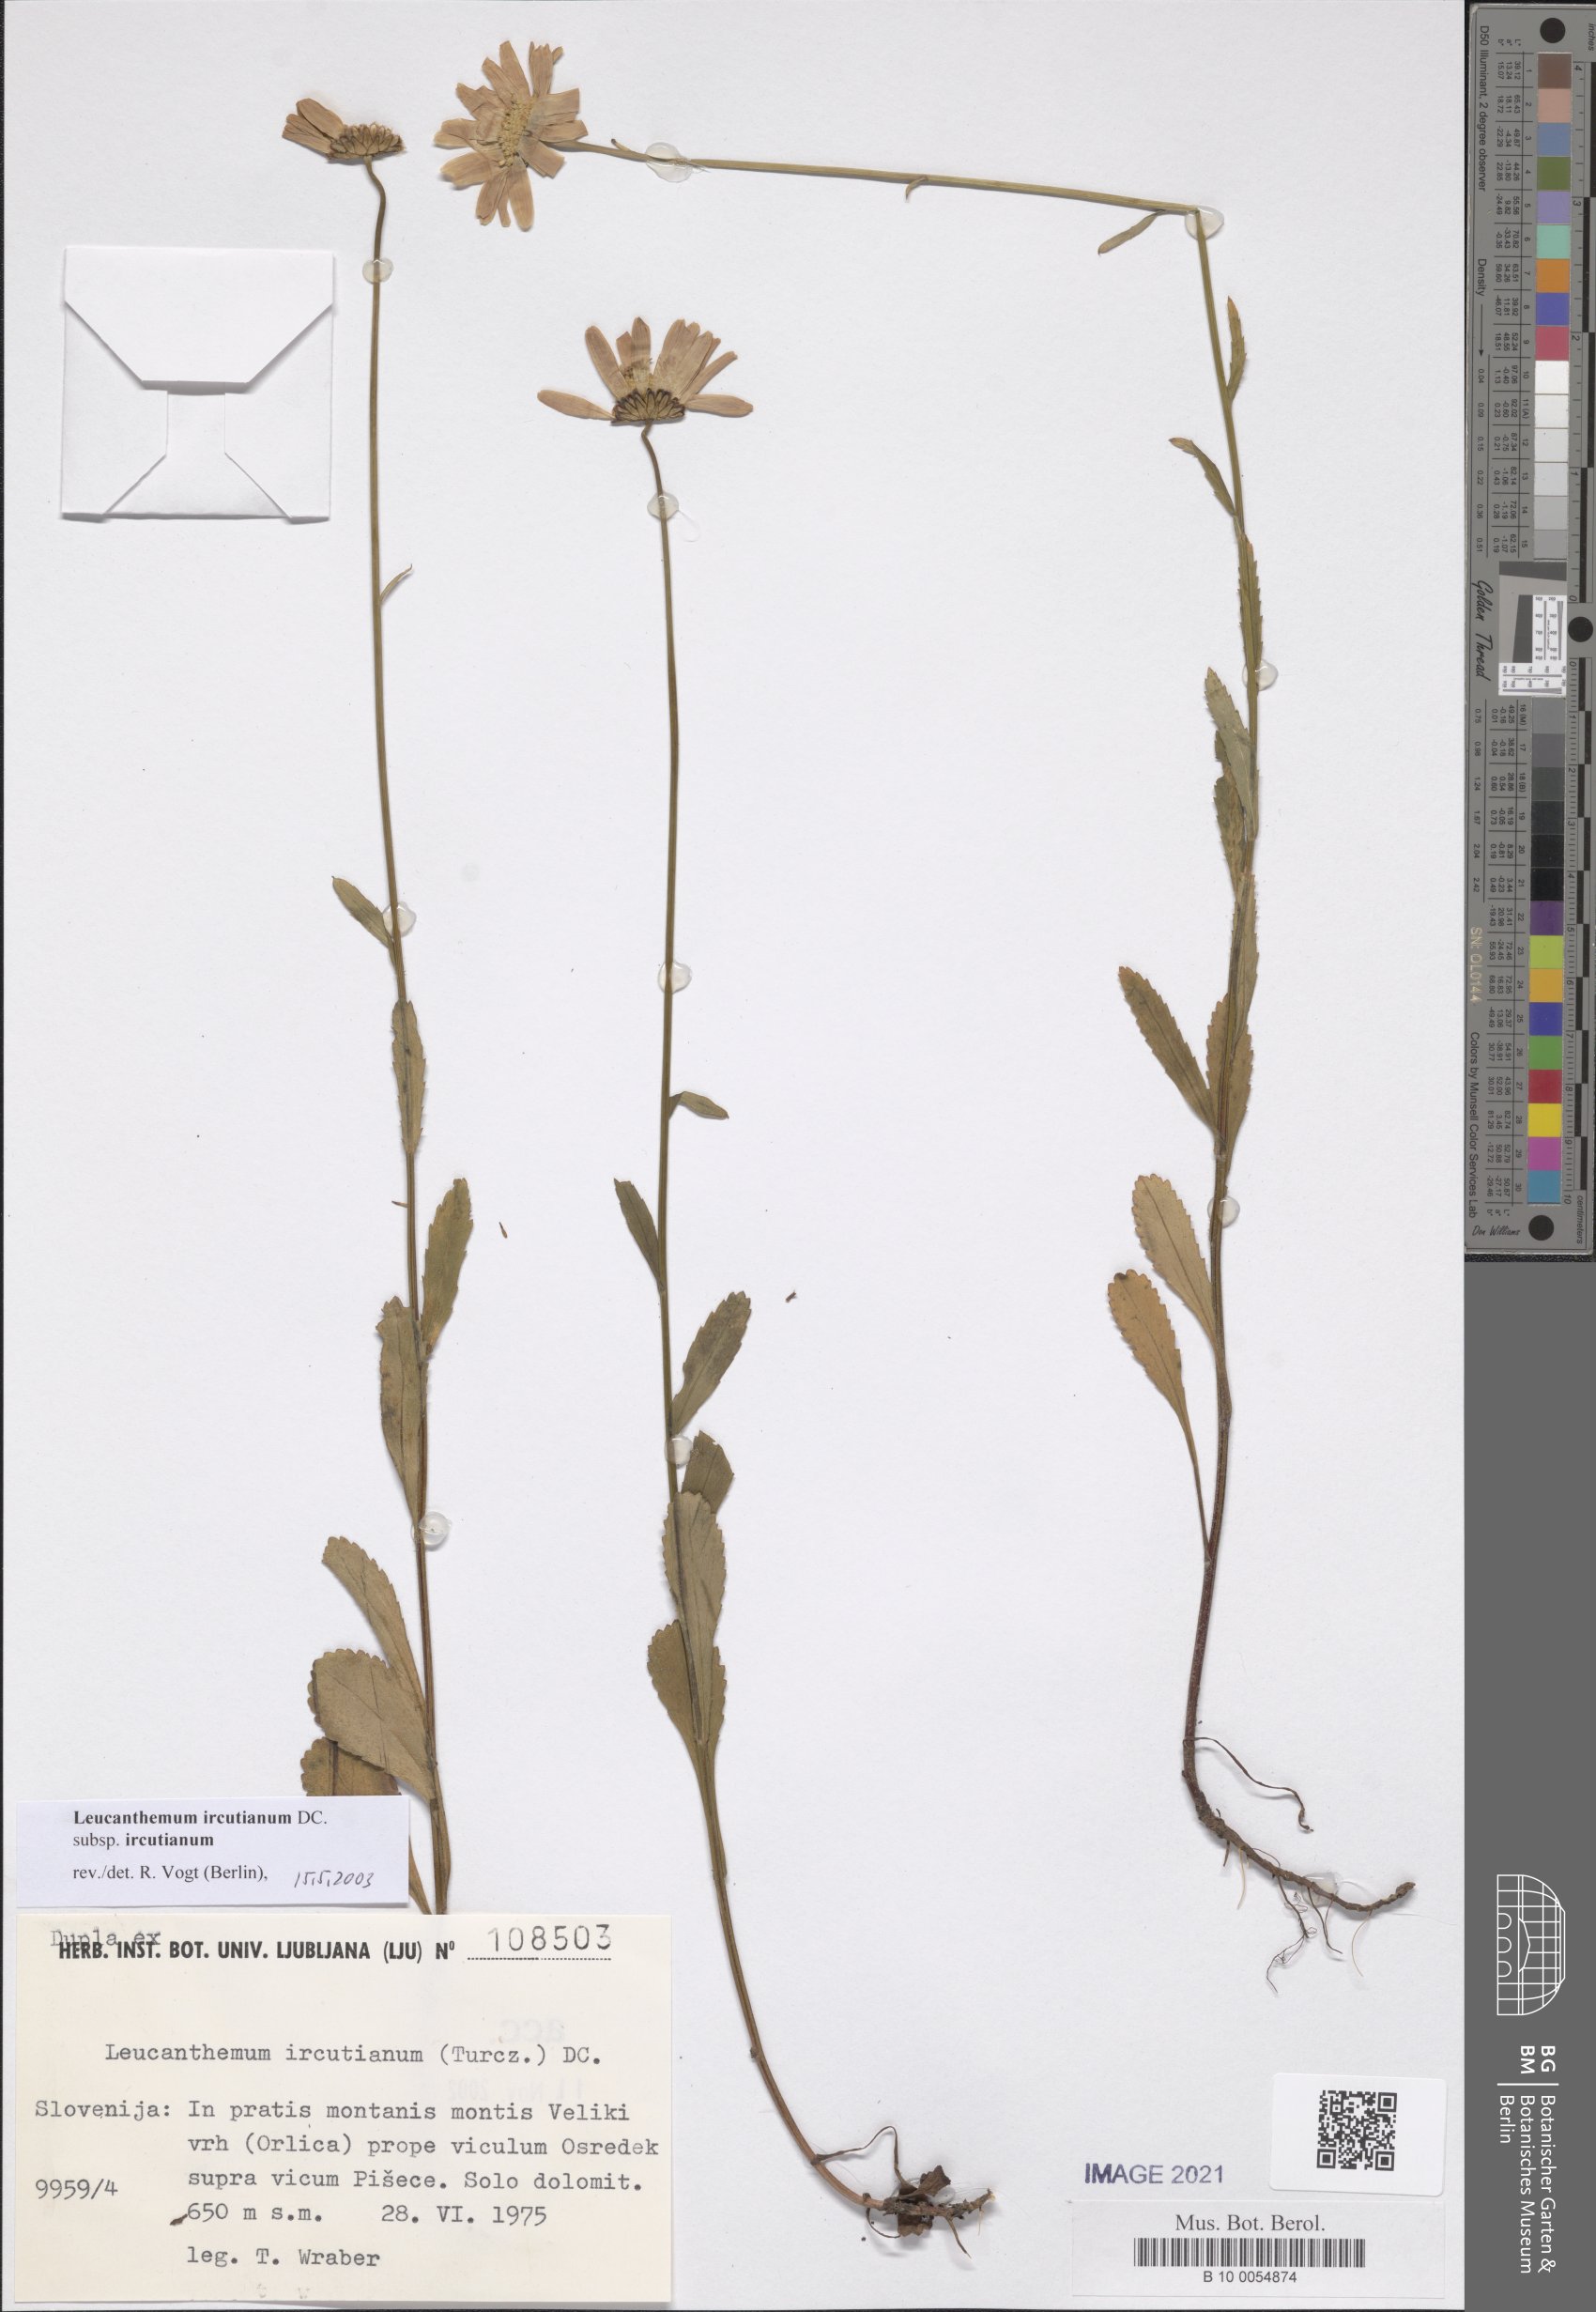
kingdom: Plantae
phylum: Tracheophyta
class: Magnoliopsida
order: Asterales
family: Asteraceae
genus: Leucanthemum
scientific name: Leucanthemum ircutianum
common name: Daisy
